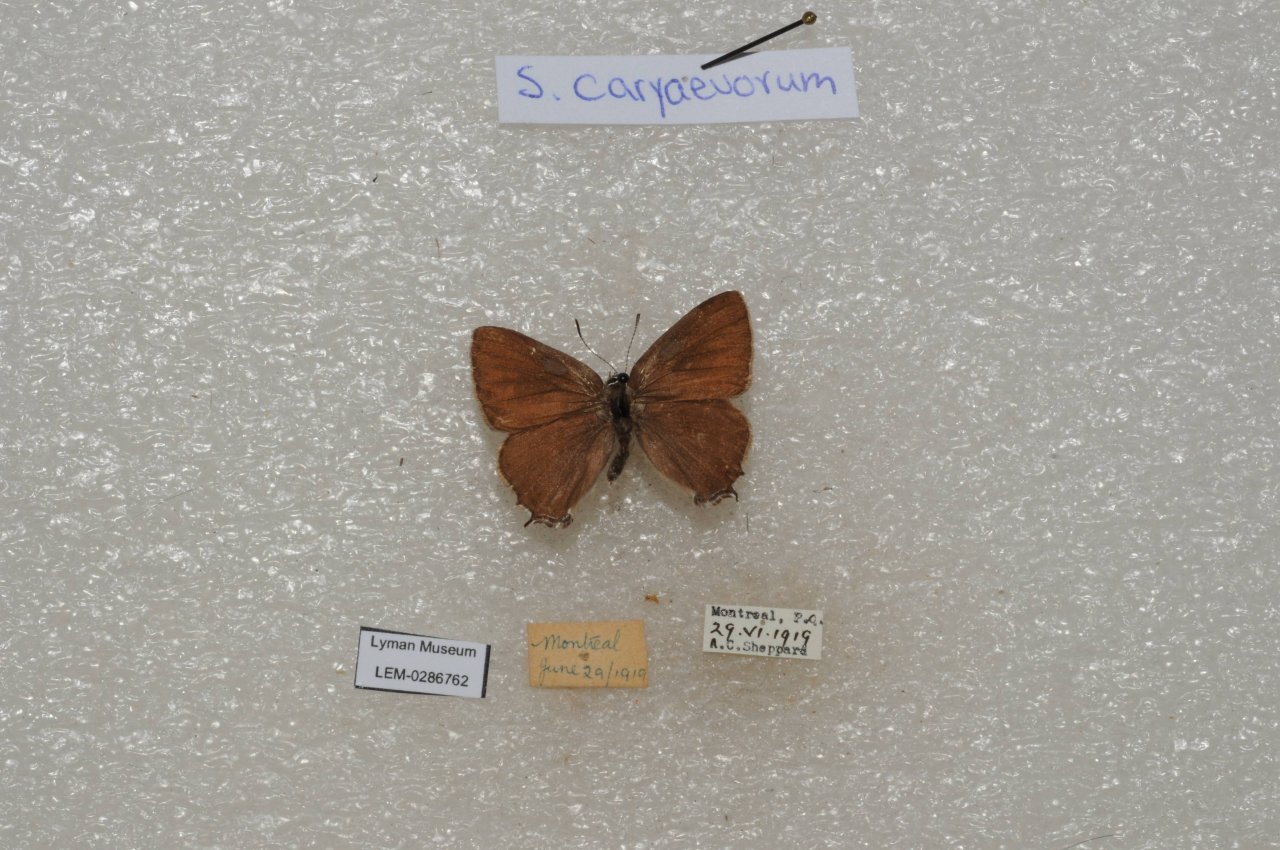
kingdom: Animalia
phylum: Arthropoda
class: Insecta
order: Lepidoptera
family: Lycaenidae
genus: Strymon
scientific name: Strymon caryaevorus
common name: Hickory Hairstreak
